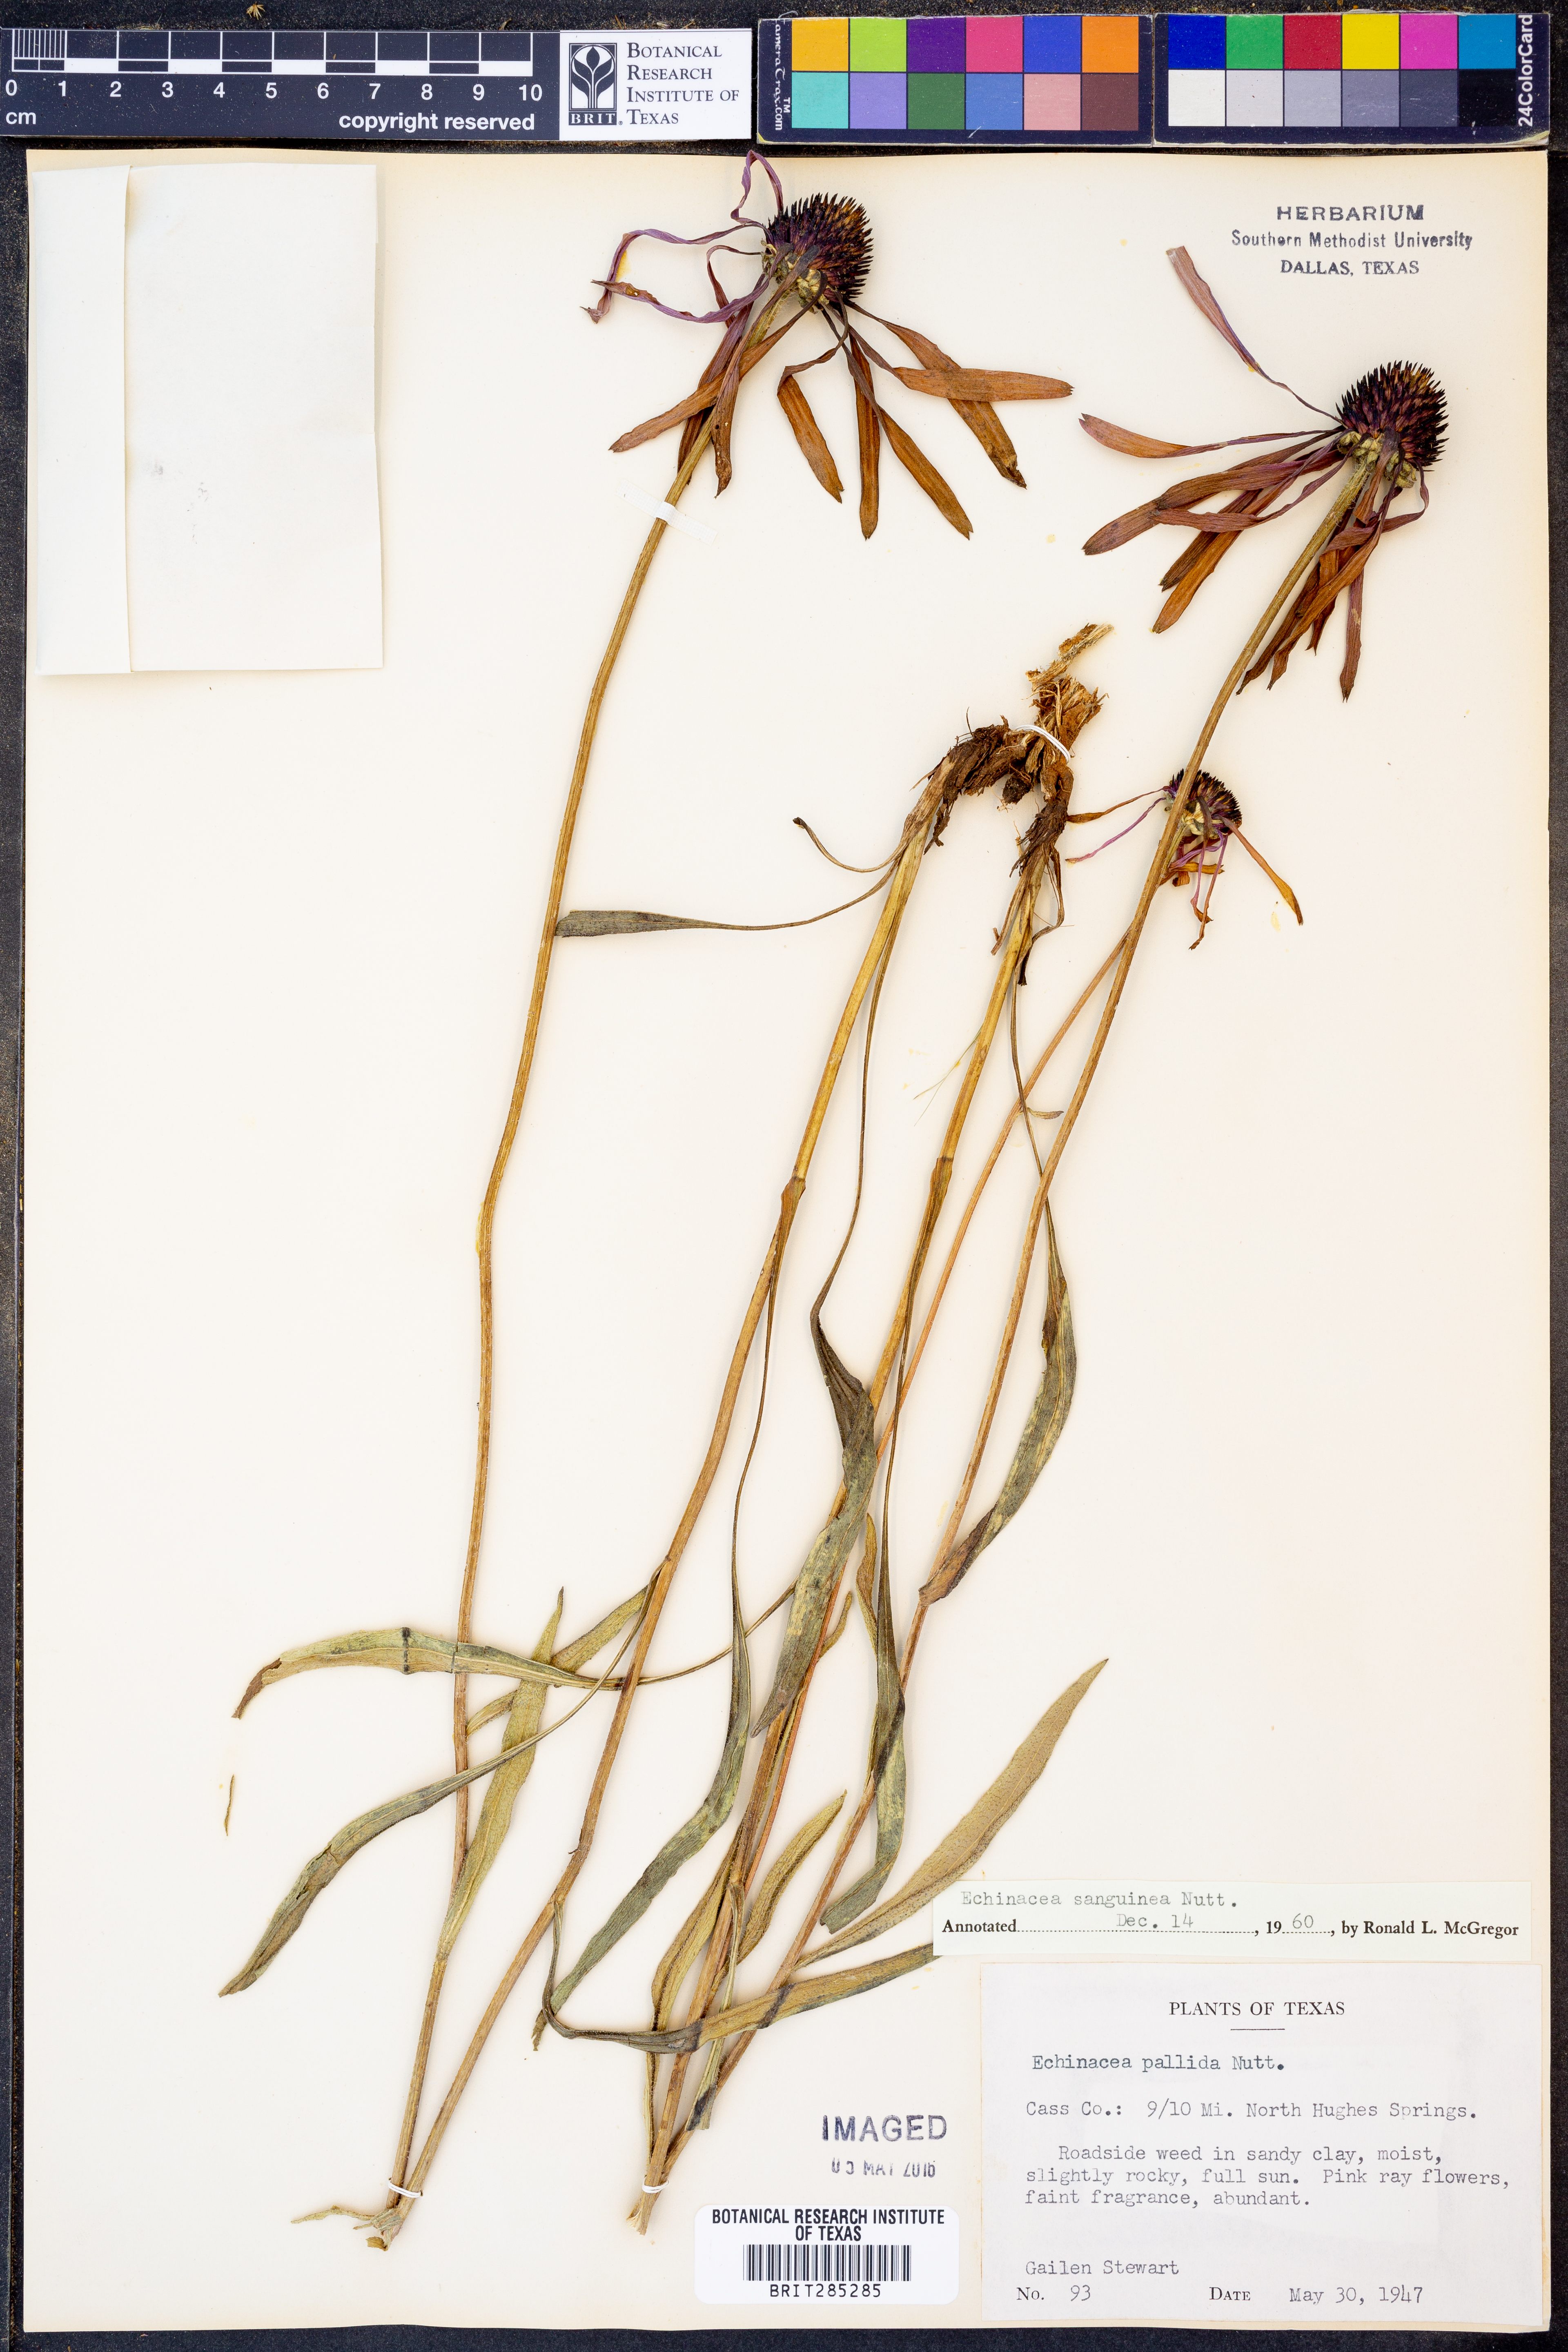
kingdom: Plantae
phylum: Tracheophyta
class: Magnoliopsida
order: Asterales
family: Asteraceae
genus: Echinacea
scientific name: Echinacea sanguinea
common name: Sanguine purple-coneflower
